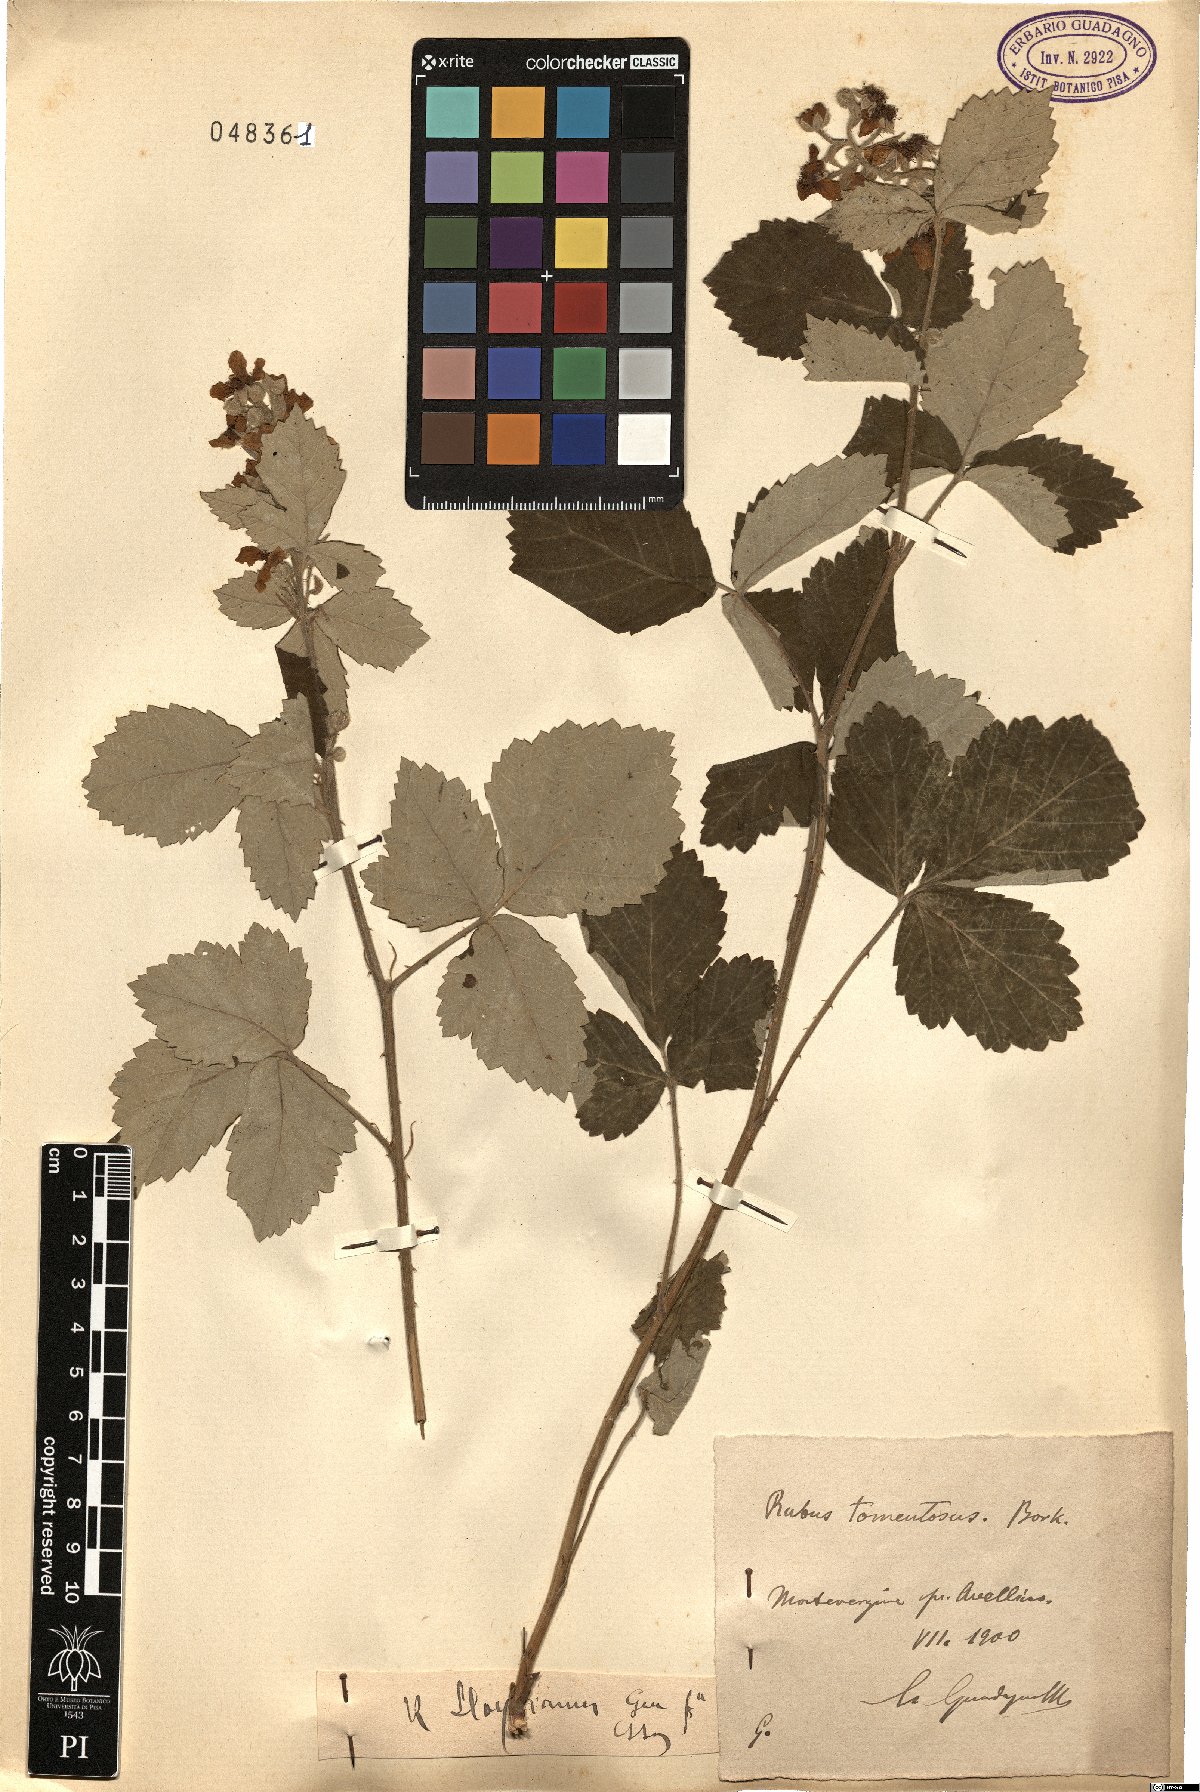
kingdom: Plantae
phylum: Tracheophyta
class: Magnoliopsida
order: Rosales
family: Rosaceae
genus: Rubus
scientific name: Rubus aetnicus
